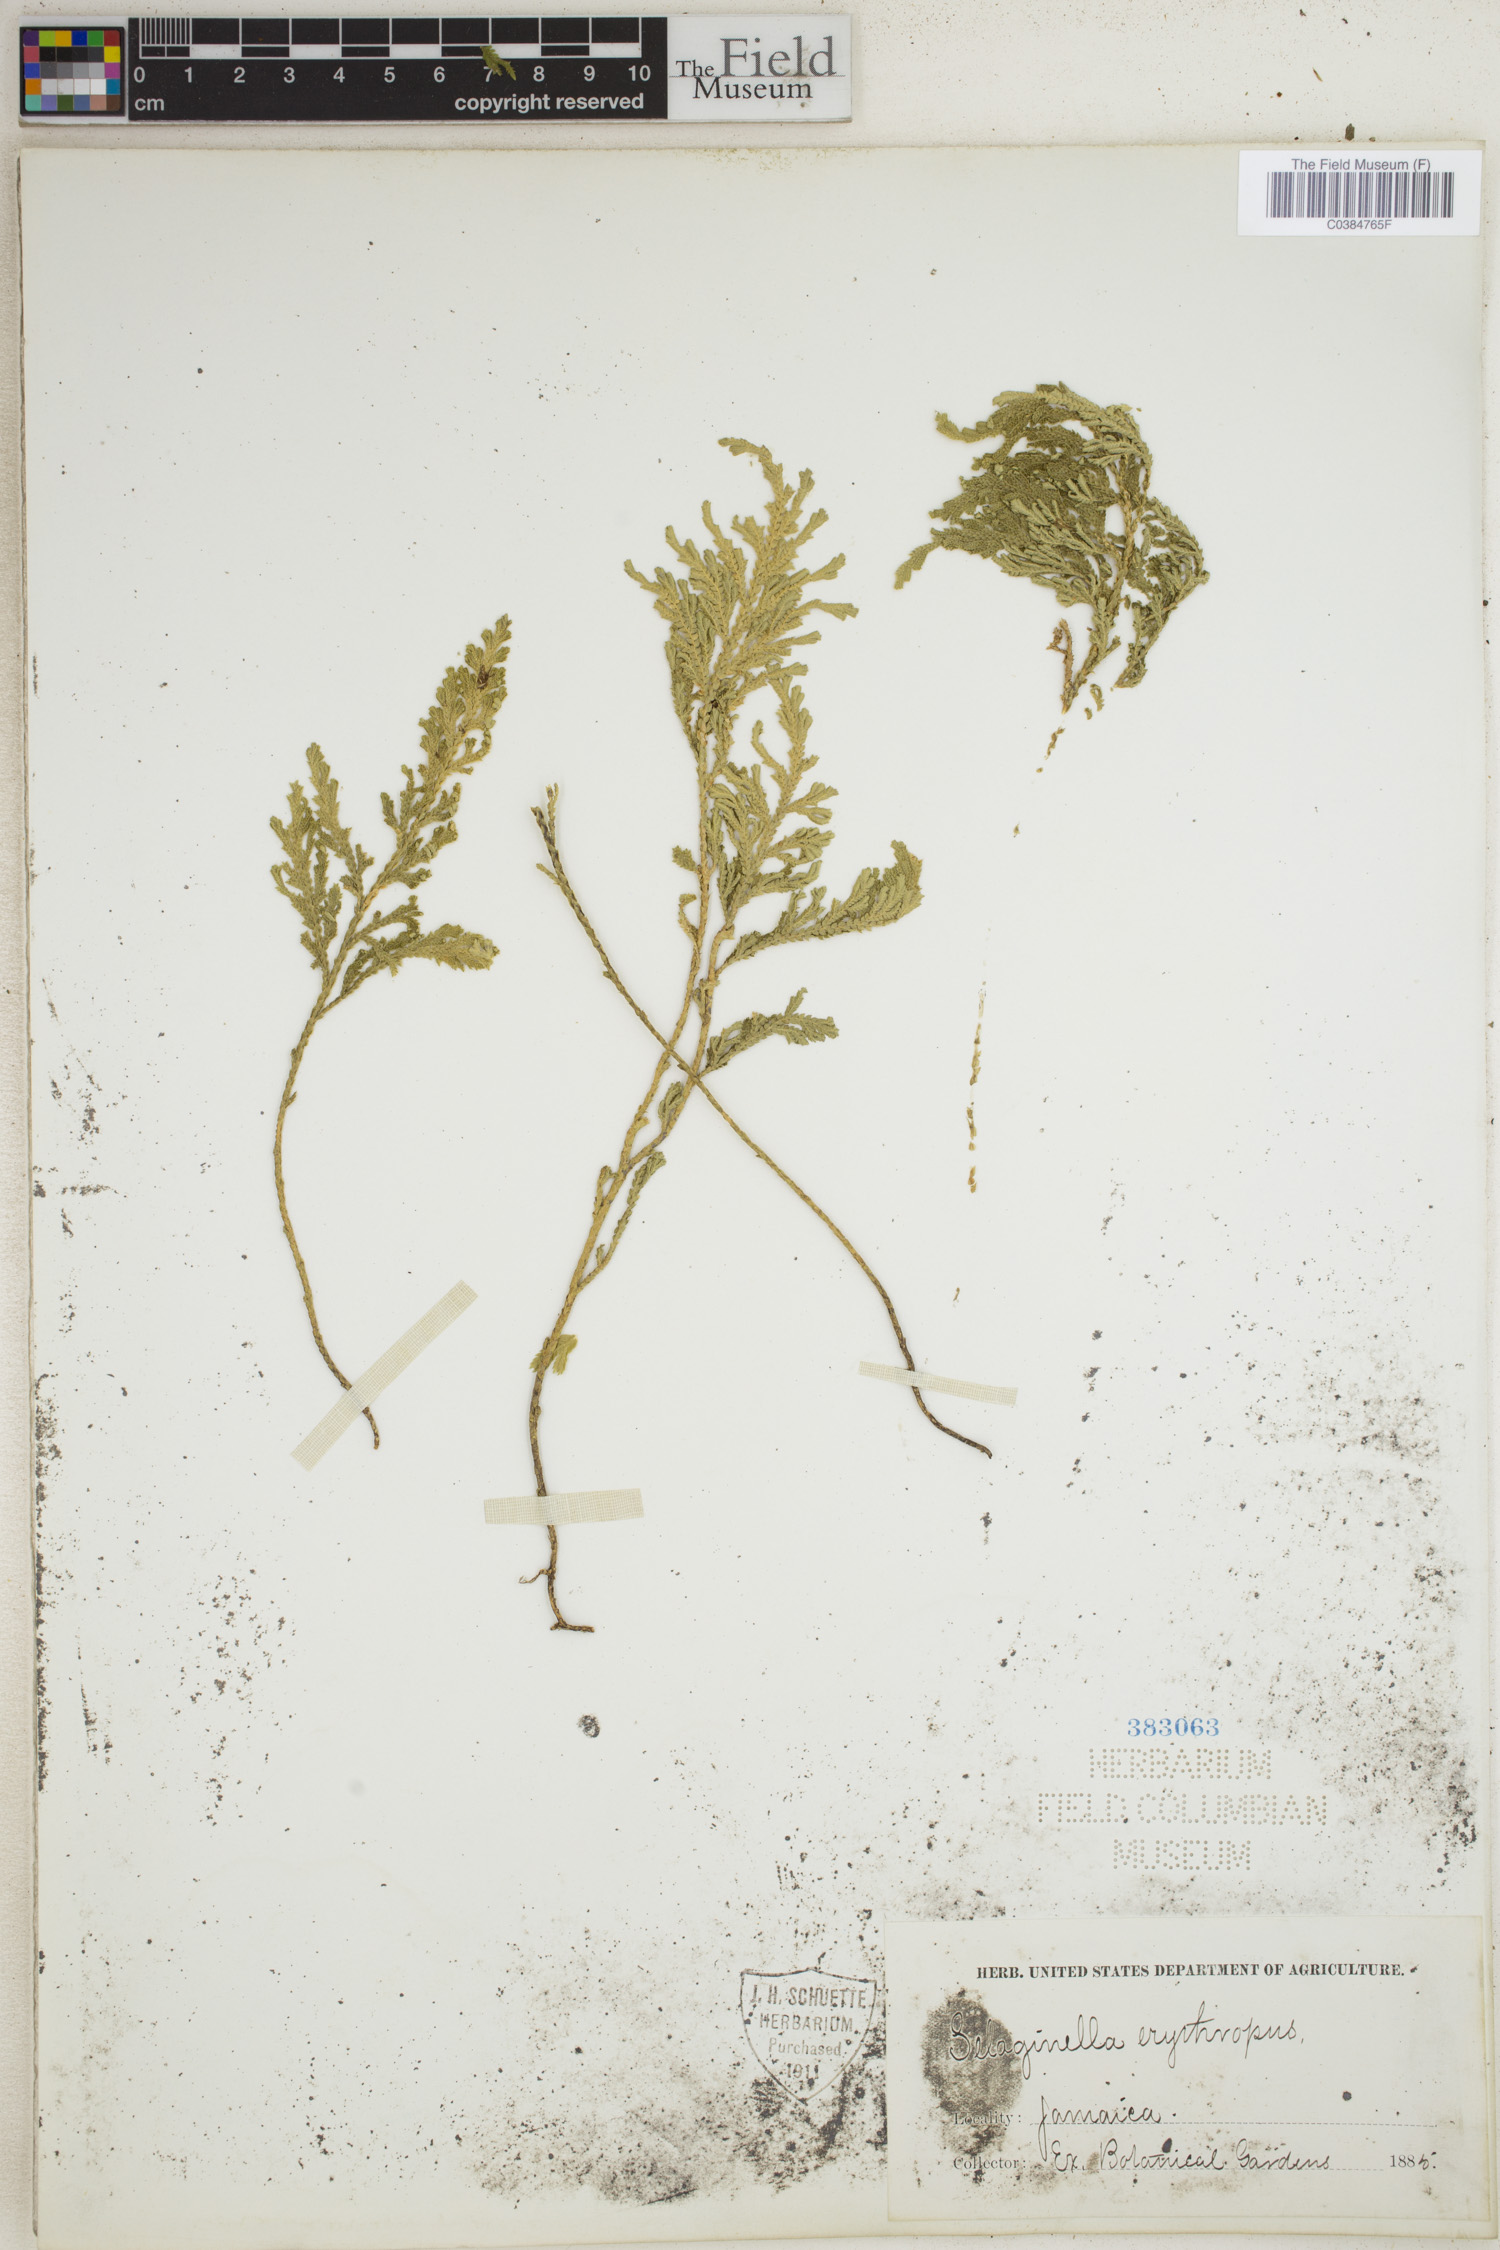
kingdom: Plantae
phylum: Tracheophyta
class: Lycopodiopsida
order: Selaginellales
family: Selaginellaceae
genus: Selaginella
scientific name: Selaginella umbrosa
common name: Spikemoss
